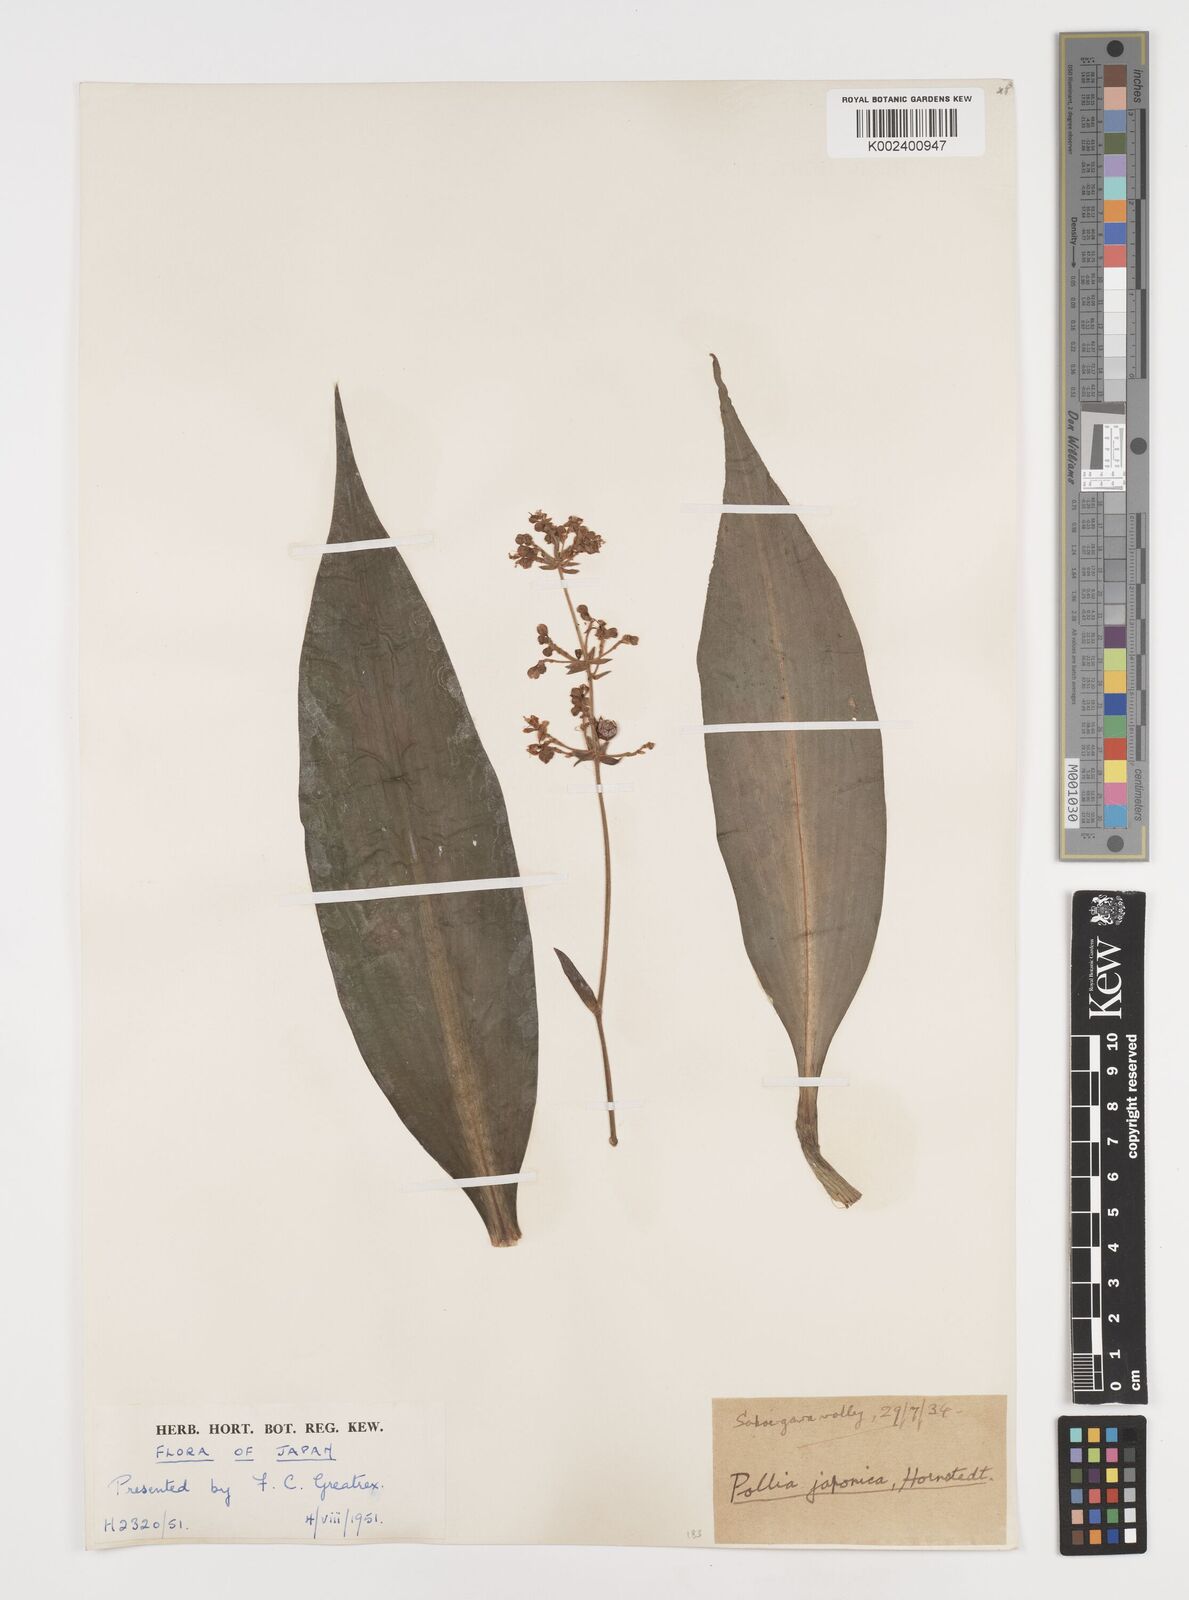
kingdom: Plantae
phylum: Tracheophyta
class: Liliopsida
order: Commelinales
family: Commelinaceae
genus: Pollia
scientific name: Pollia japonica
